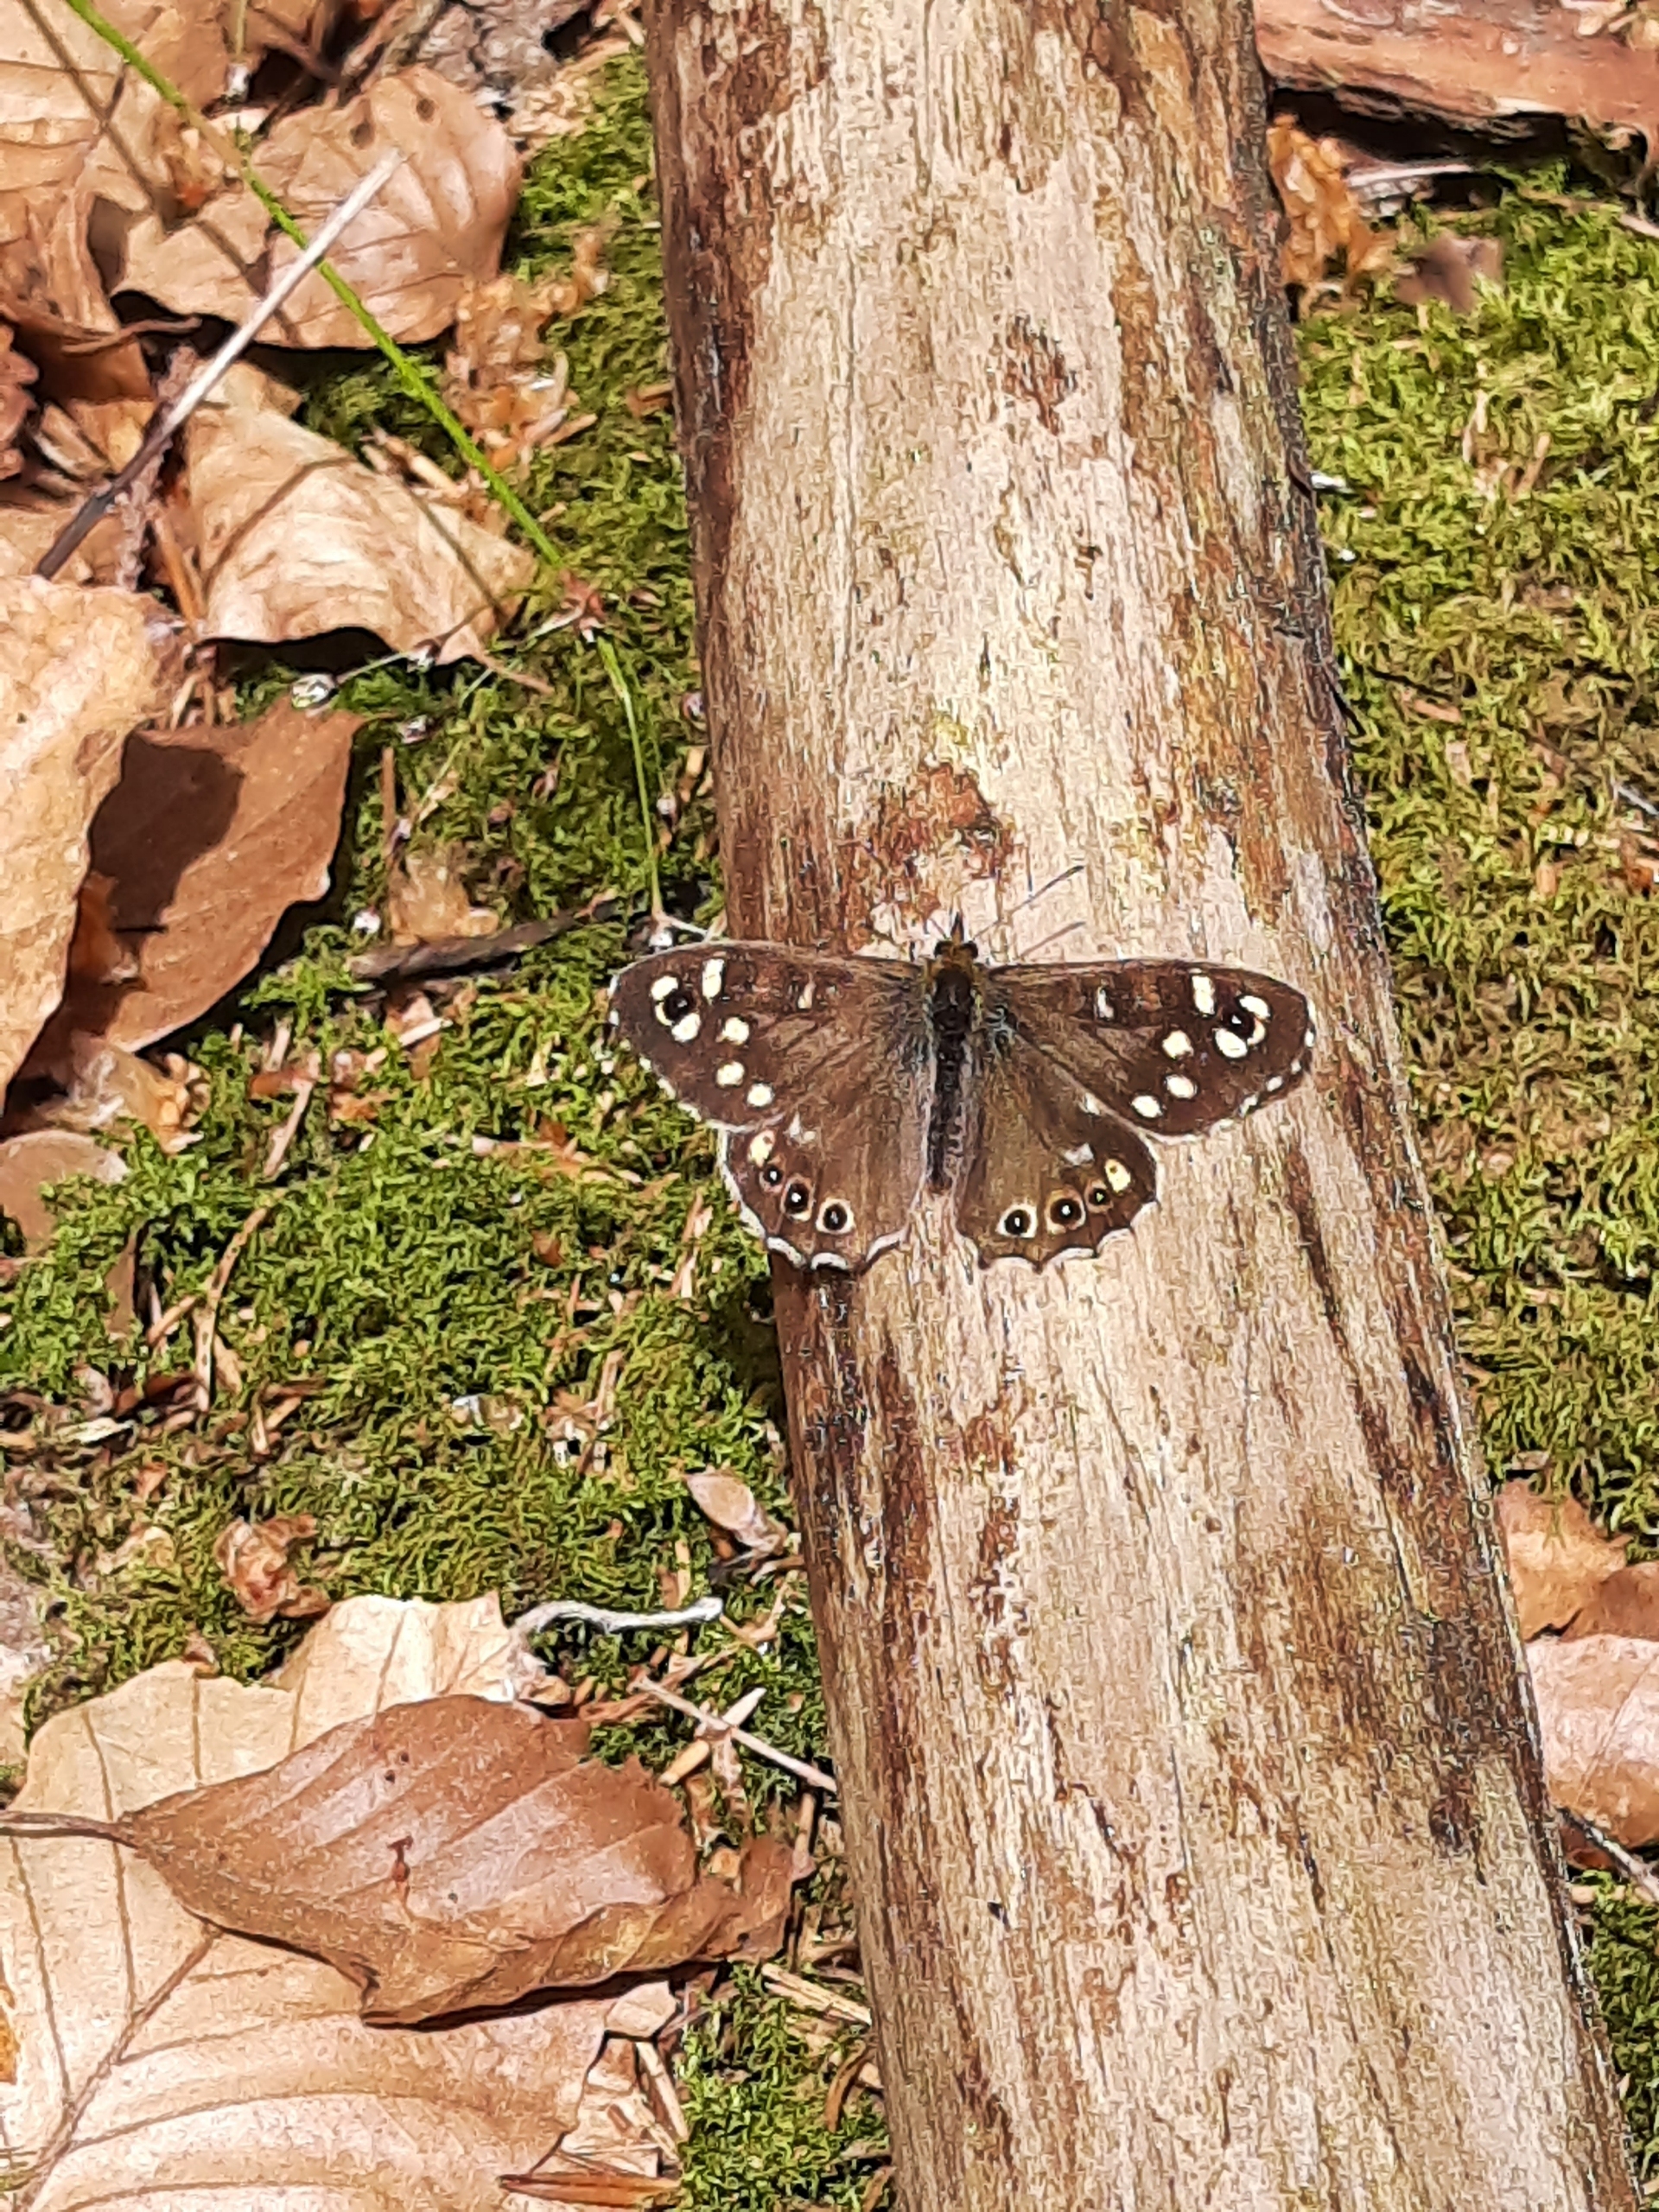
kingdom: Animalia
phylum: Arthropoda
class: Insecta
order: Lepidoptera
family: Nymphalidae
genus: Pararge
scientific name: Pararge aegeria
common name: Skovrandøje
